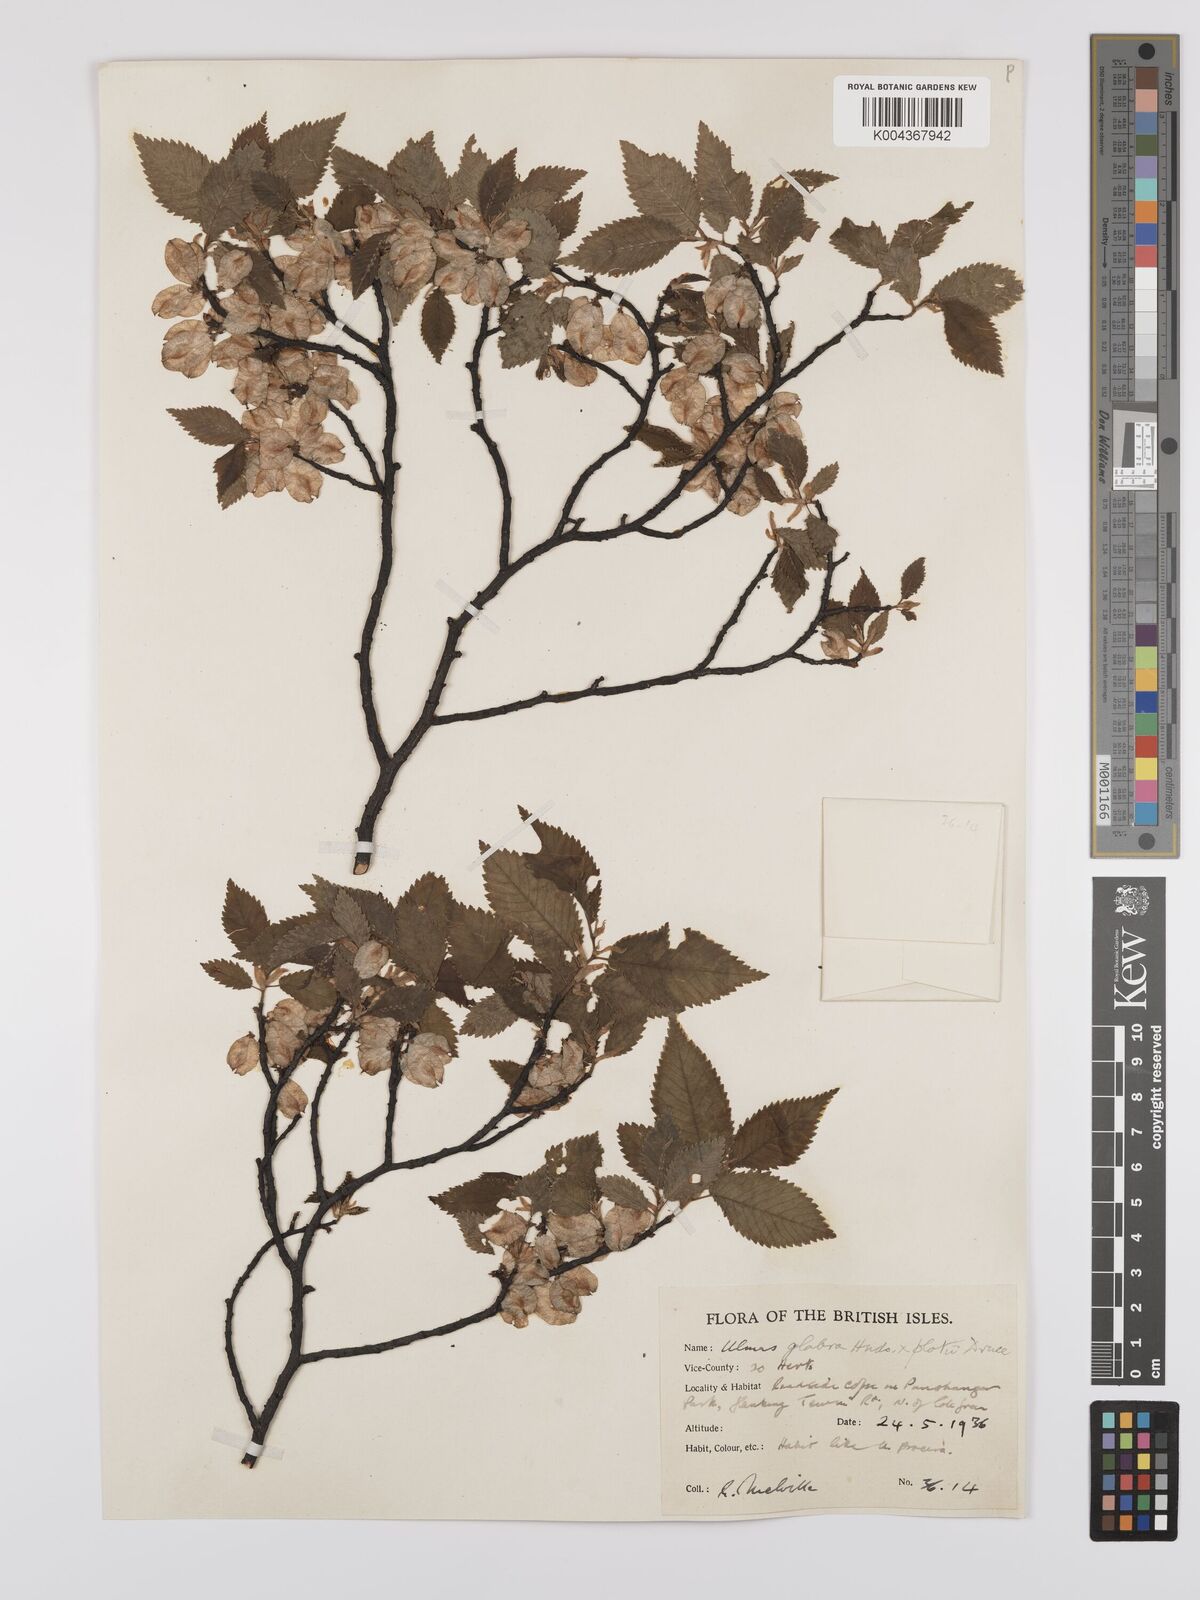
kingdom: Plantae
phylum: Tracheophyta
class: Magnoliopsida
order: Rosales
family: Ulmaceae
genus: Ulmus
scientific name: Ulmus glabra
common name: Wych elm
